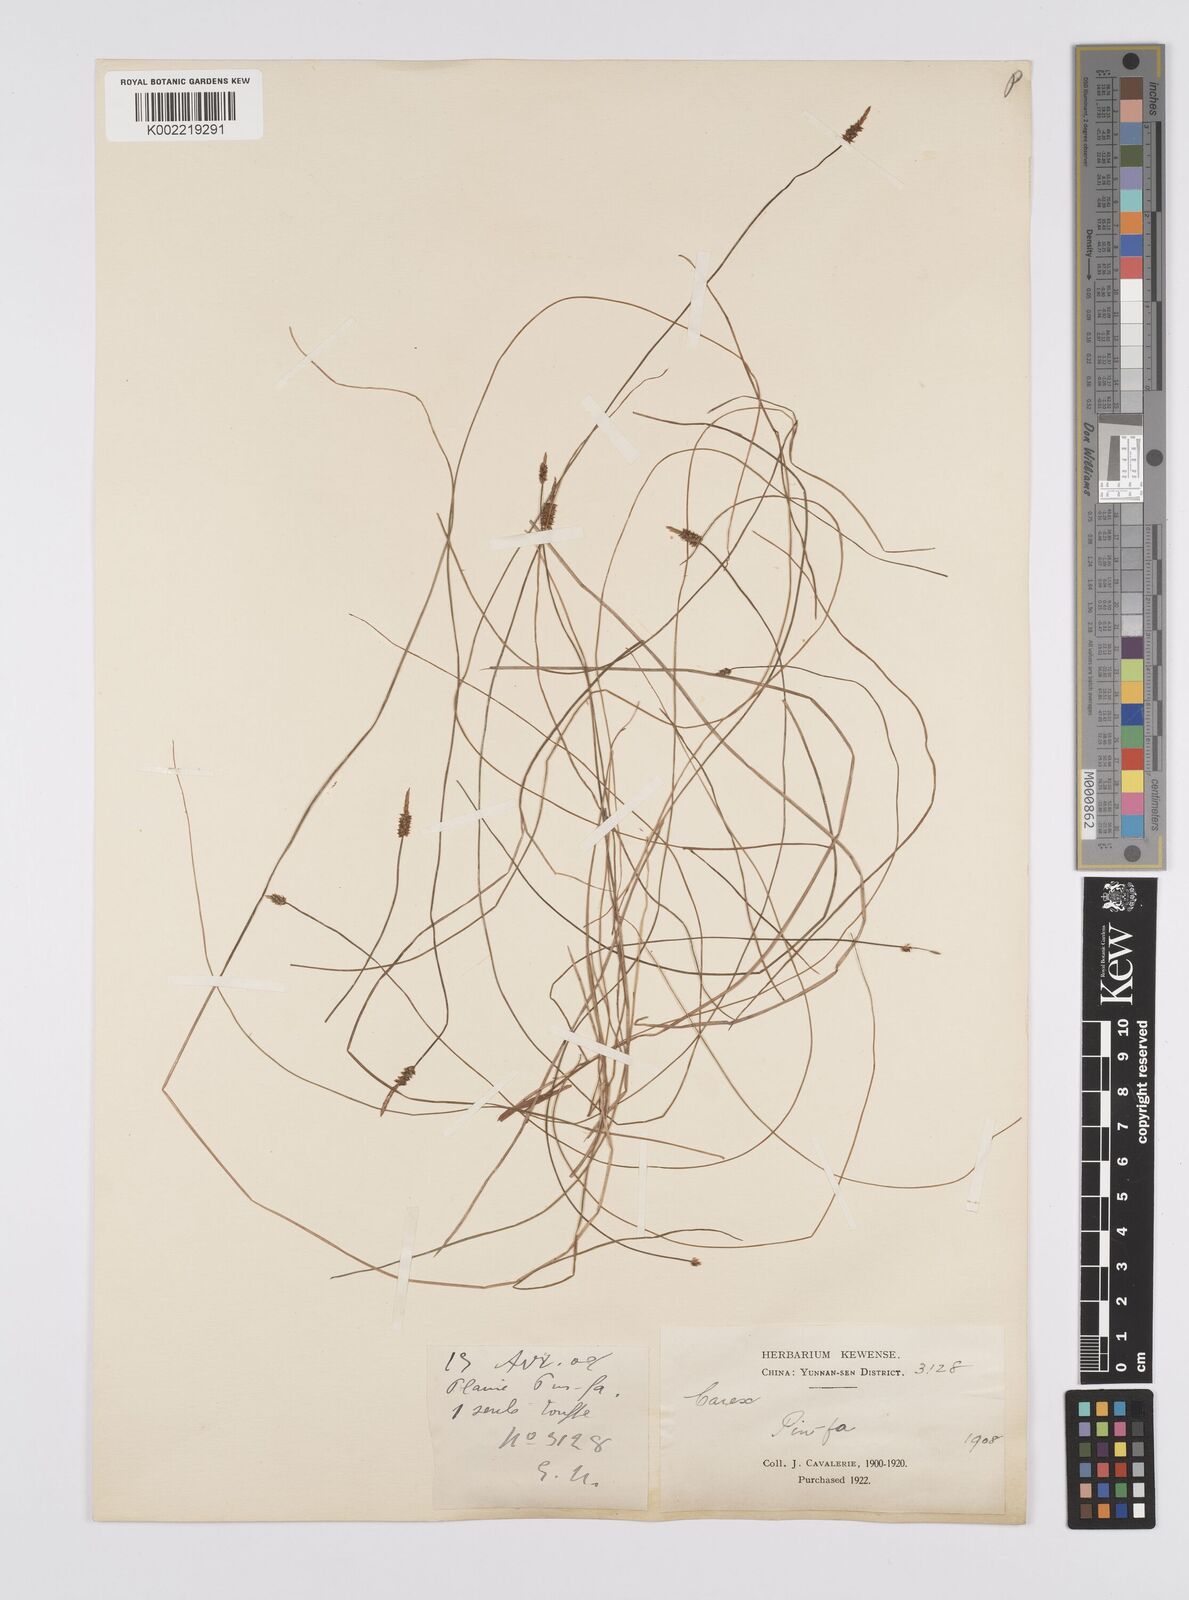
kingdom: Plantae
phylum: Tracheophyta
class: Liliopsida
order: Poales
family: Cyperaceae
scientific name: Cyperaceae
